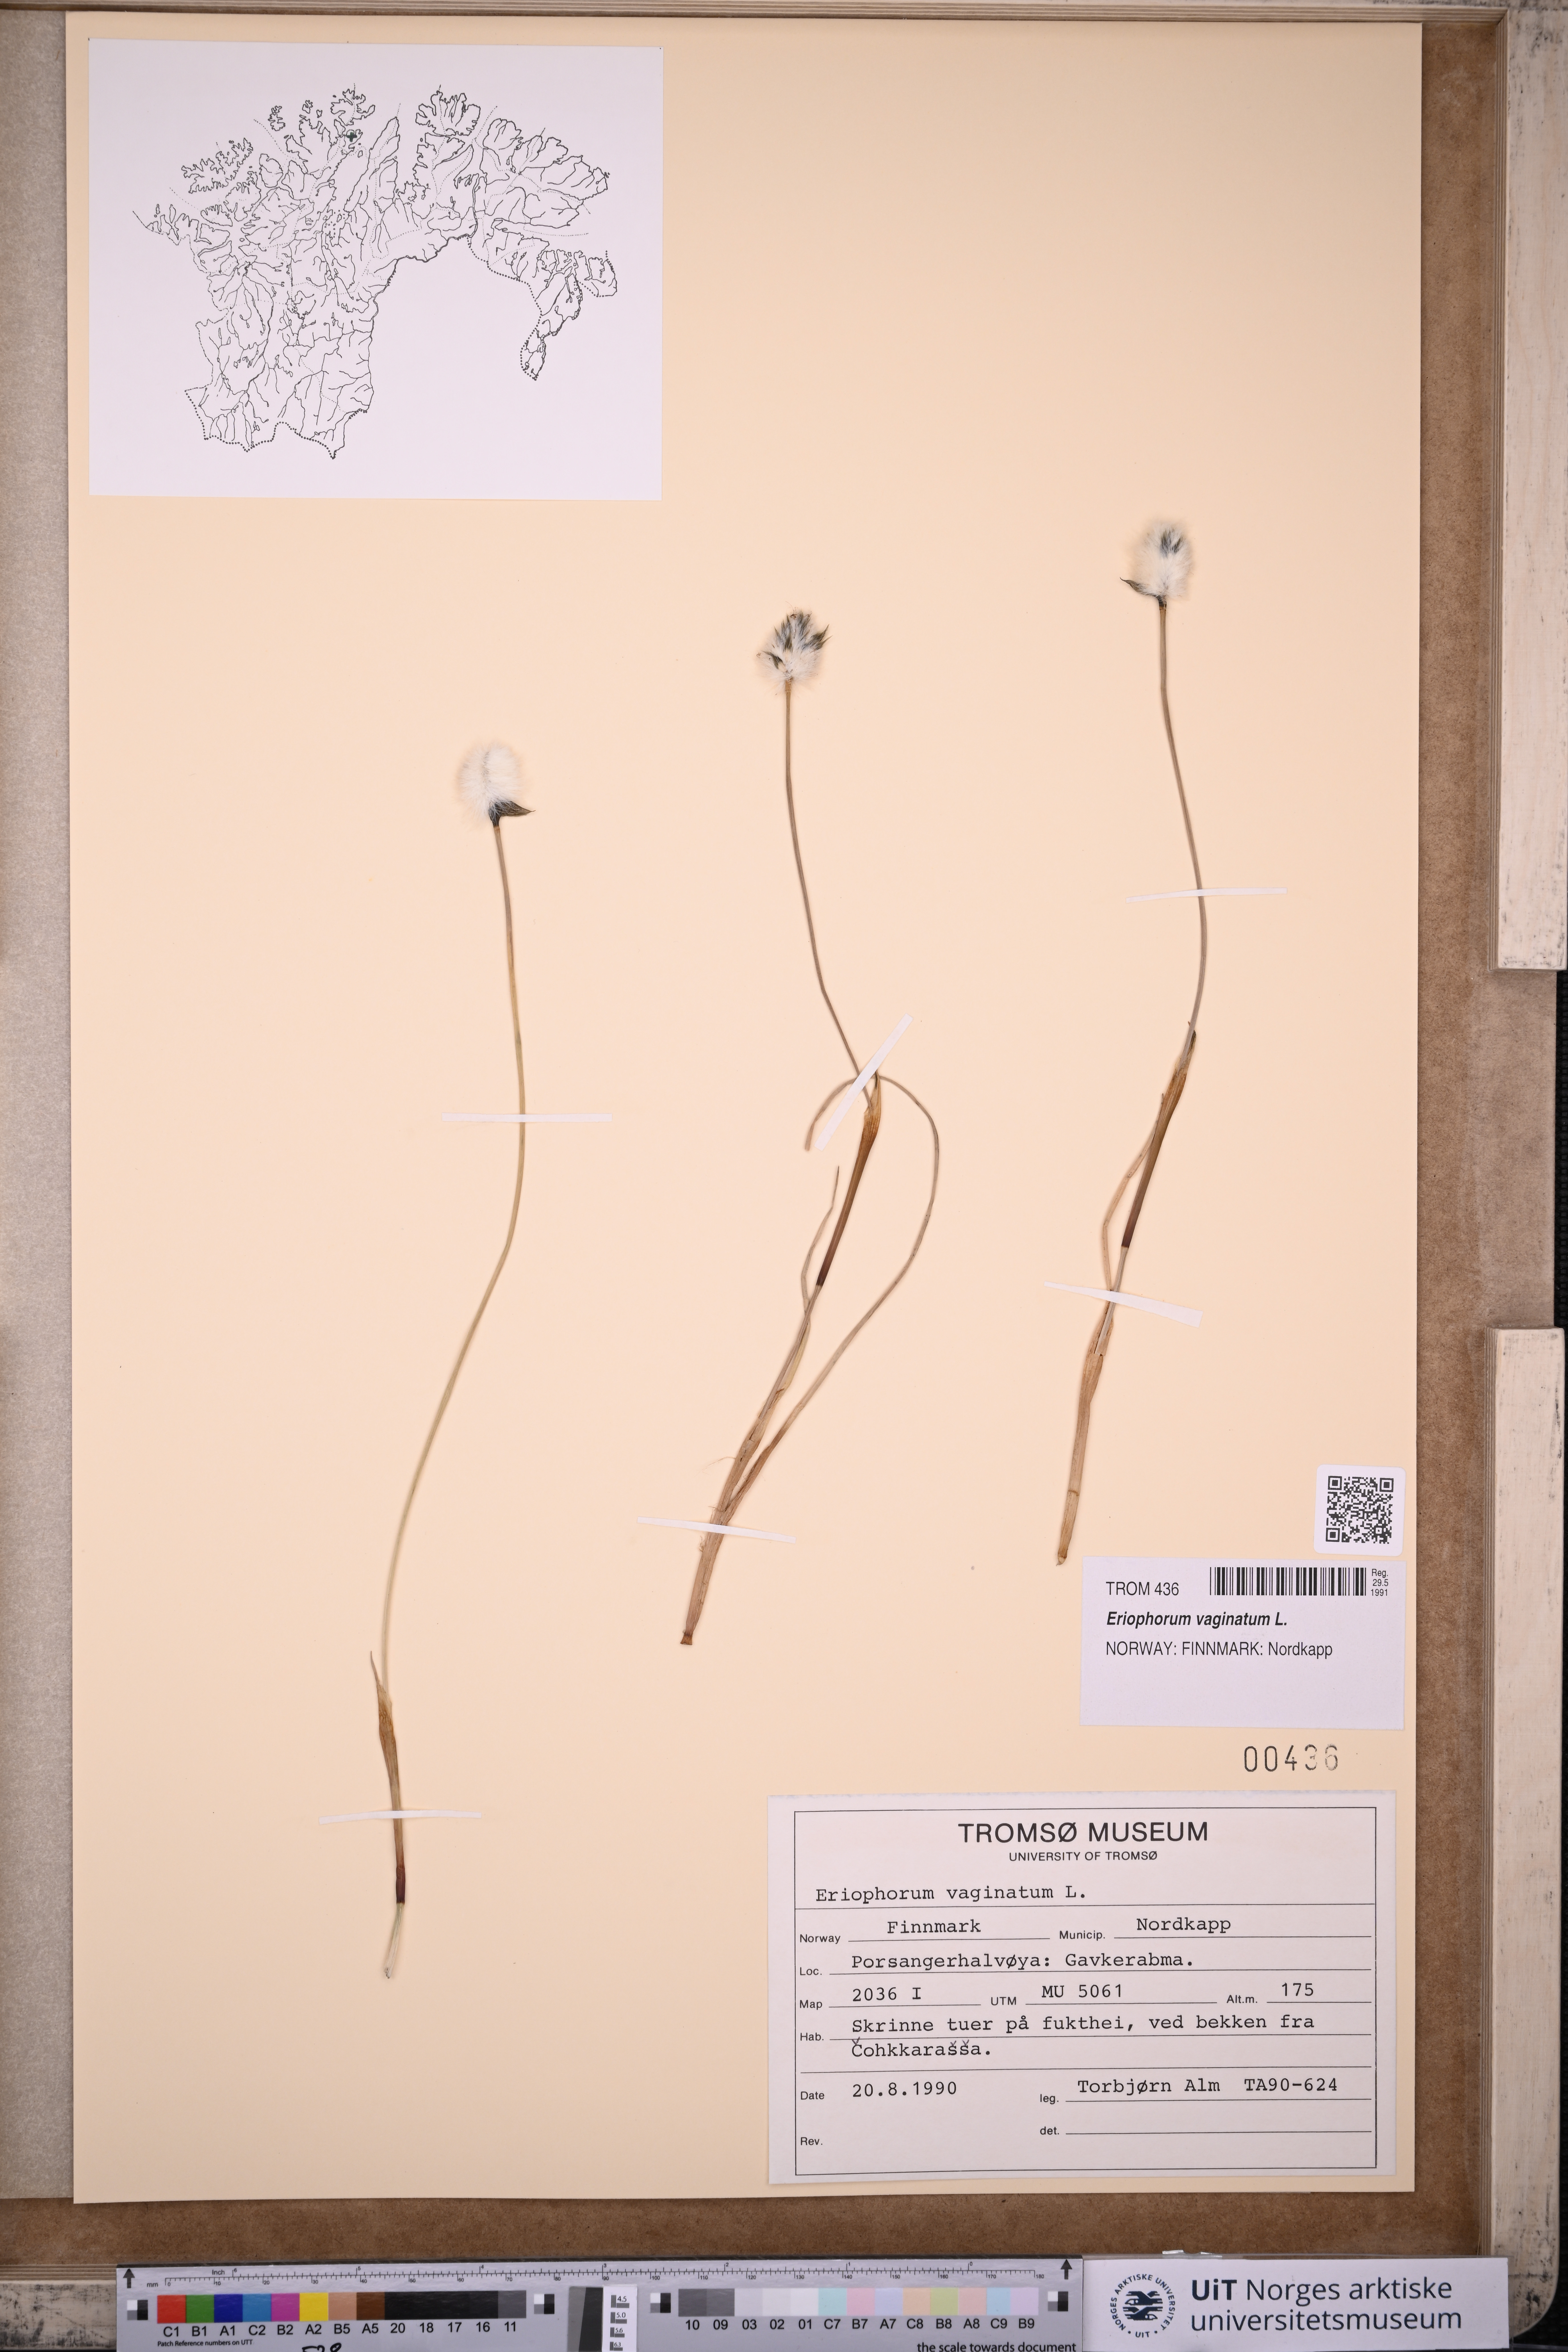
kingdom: Plantae
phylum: Tracheophyta
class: Liliopsida
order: Poales
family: Cyperaceae
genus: Eriophorum
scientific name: Eriophorum vaginatum
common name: Hare's-tail cottongrass
